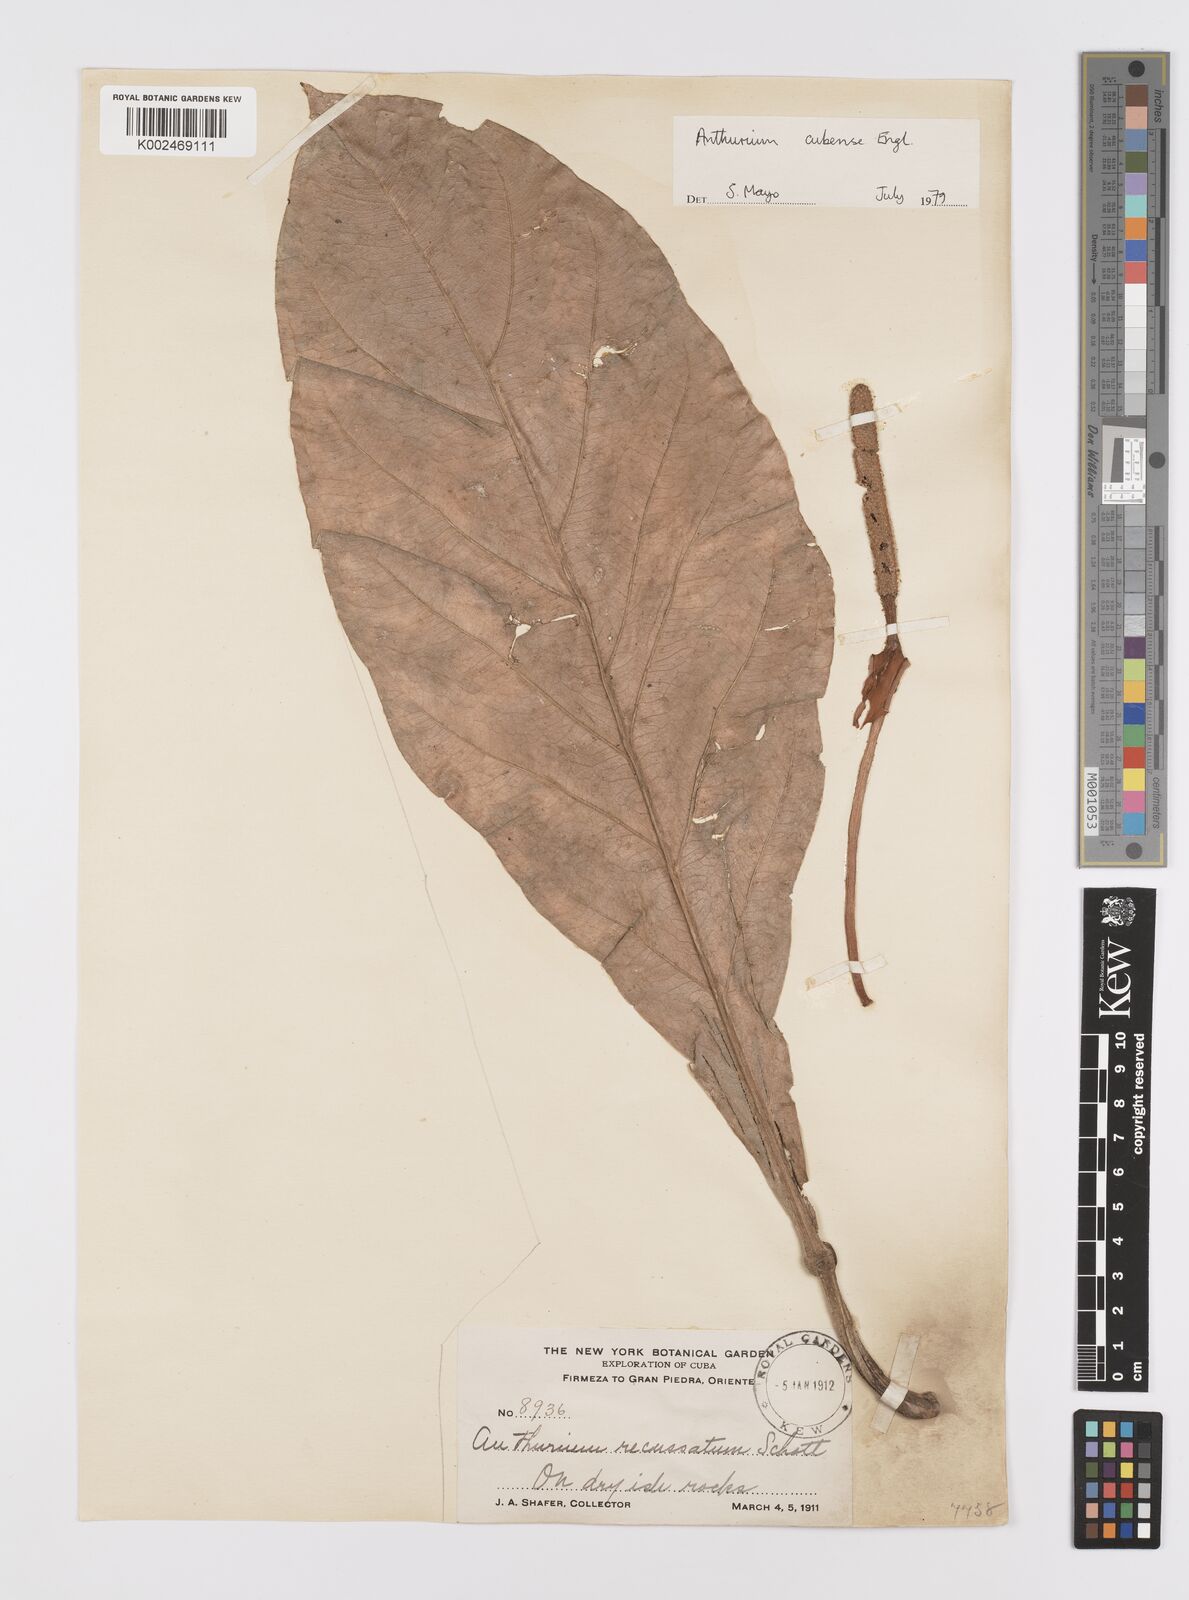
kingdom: Plantae
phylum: Tracheophyta
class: Liliopsida
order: Alismatales
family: Araceae
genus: Anthurium
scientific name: Anthurium cubense
